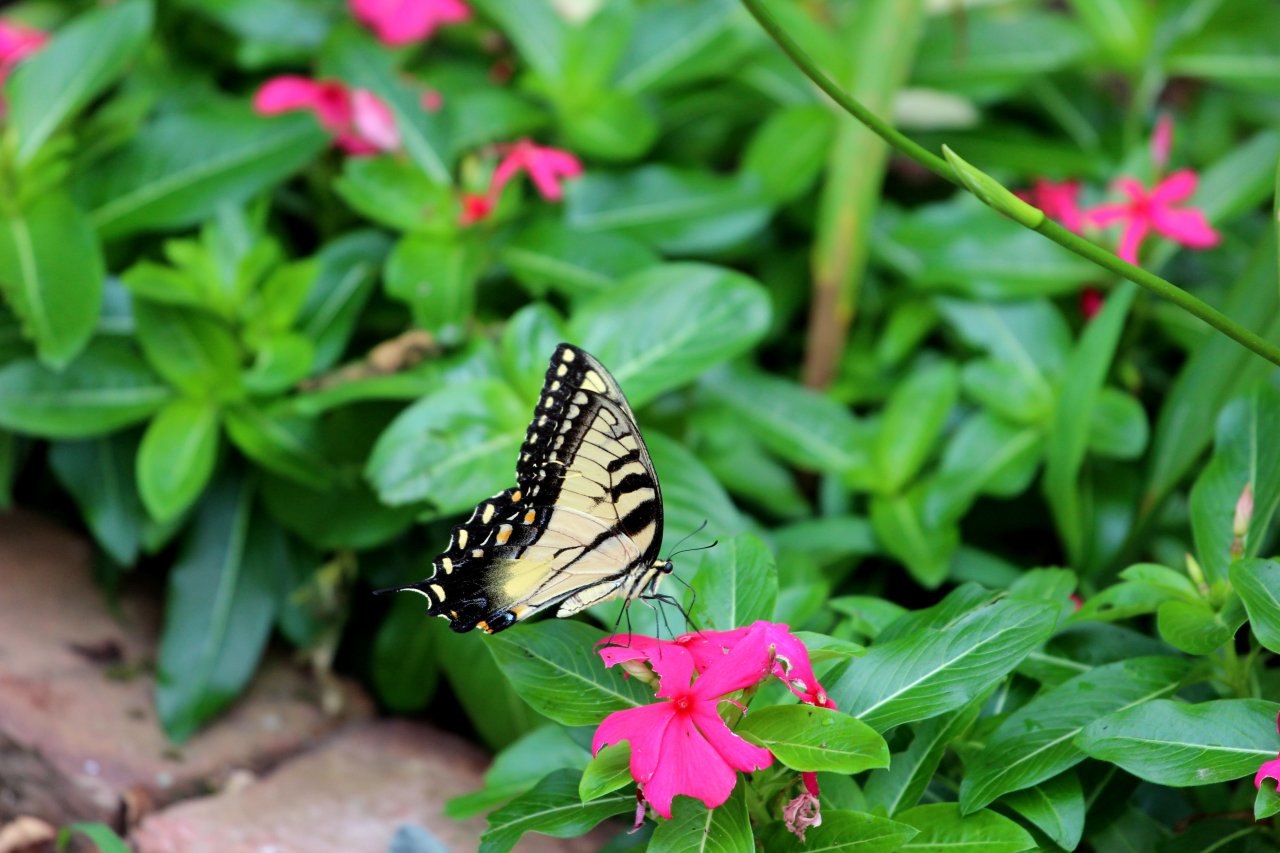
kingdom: Animalia
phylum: Arthropoda
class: Insecta
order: Lepidoptera
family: Papilionidae
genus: Pterourus
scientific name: Pterourus glaucus
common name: Eastern Tiger Swallowtail
